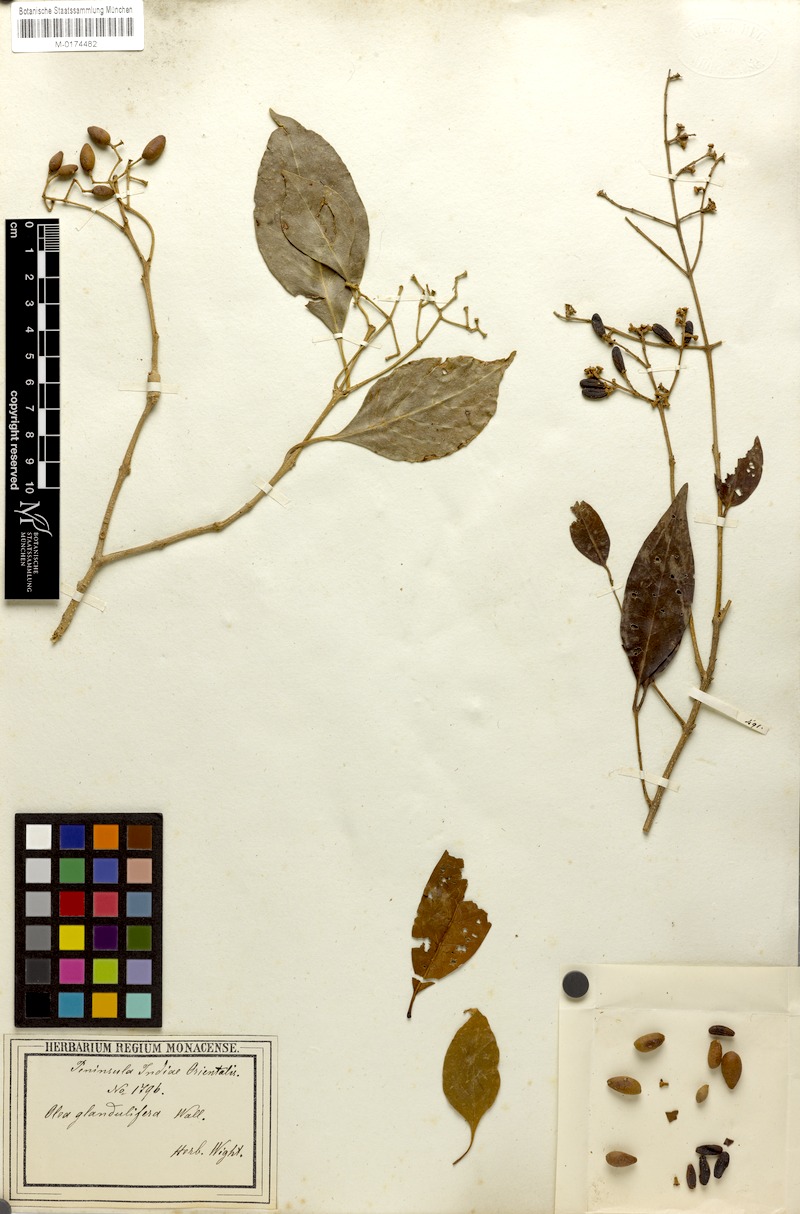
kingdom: Plantae
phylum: Tracheophyta
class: Magnoliopsida
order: Lamiales
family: Oleaceae
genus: Olea
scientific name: Olea paniculata
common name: Australian olive
